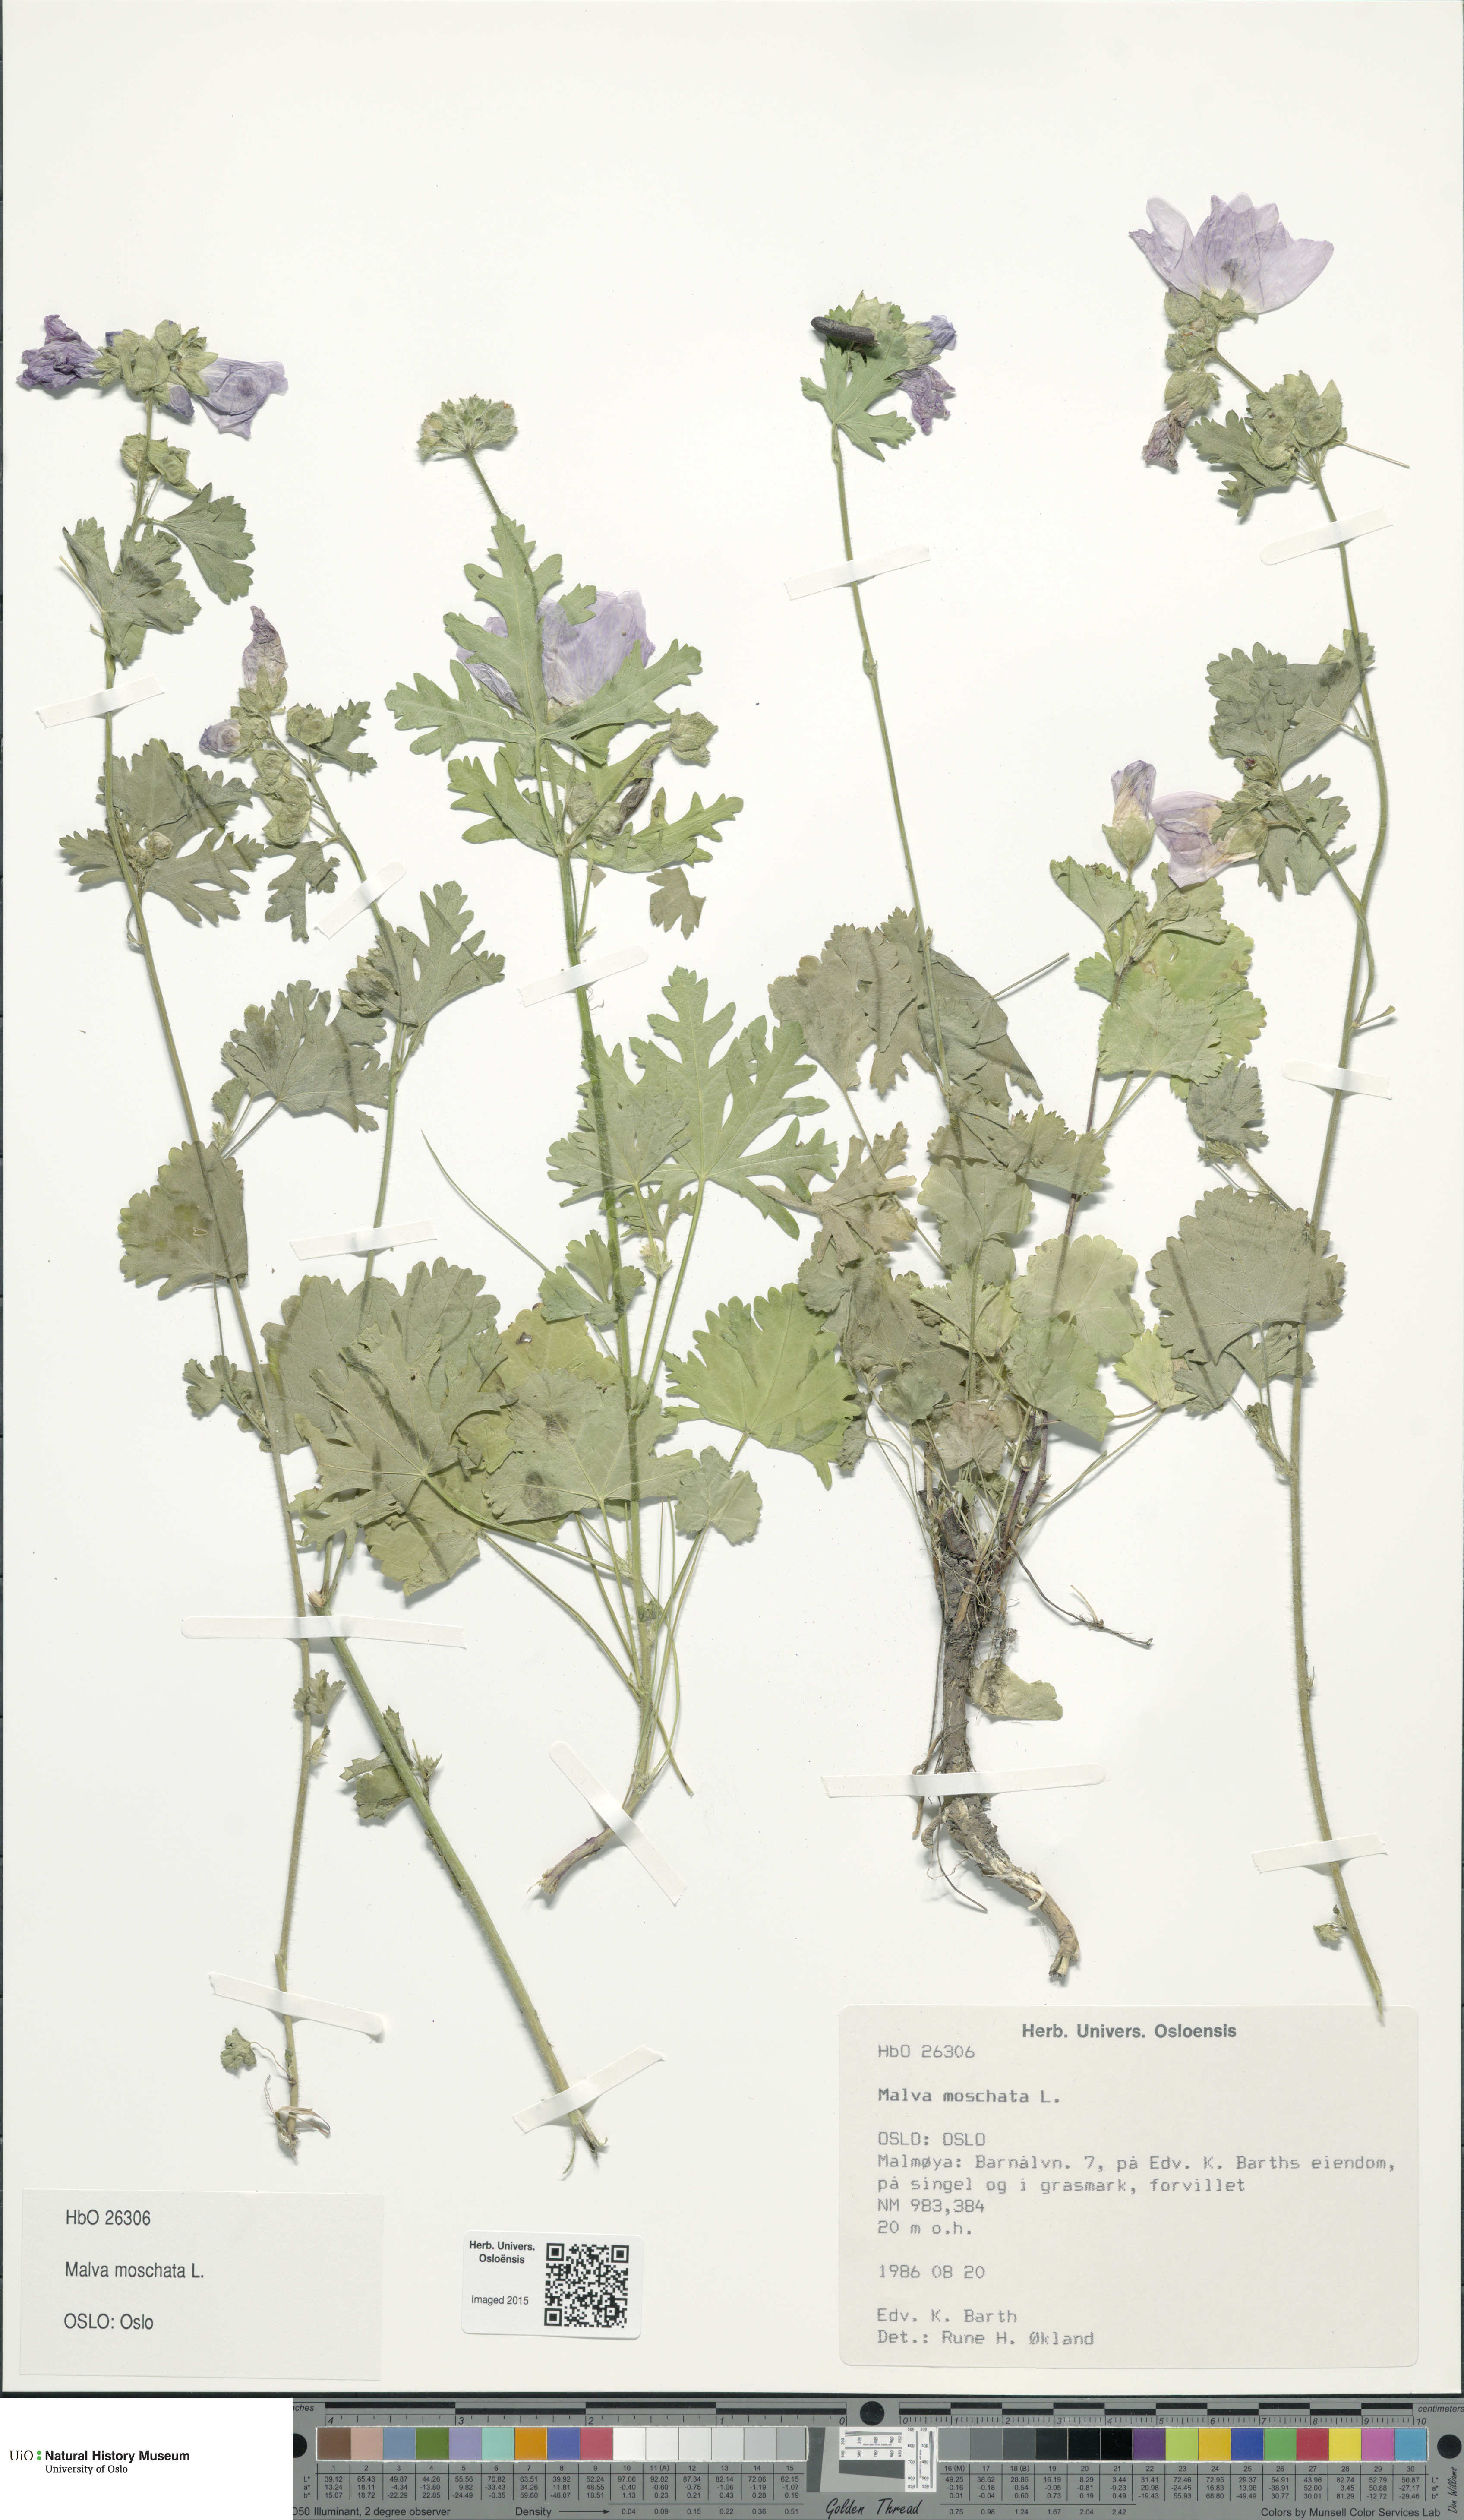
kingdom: Plantae
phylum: Tracheophyta
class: Magnoliopsida
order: Malvales
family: Malvaceae
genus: Malva
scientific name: Malva moschata
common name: Musk mallow
